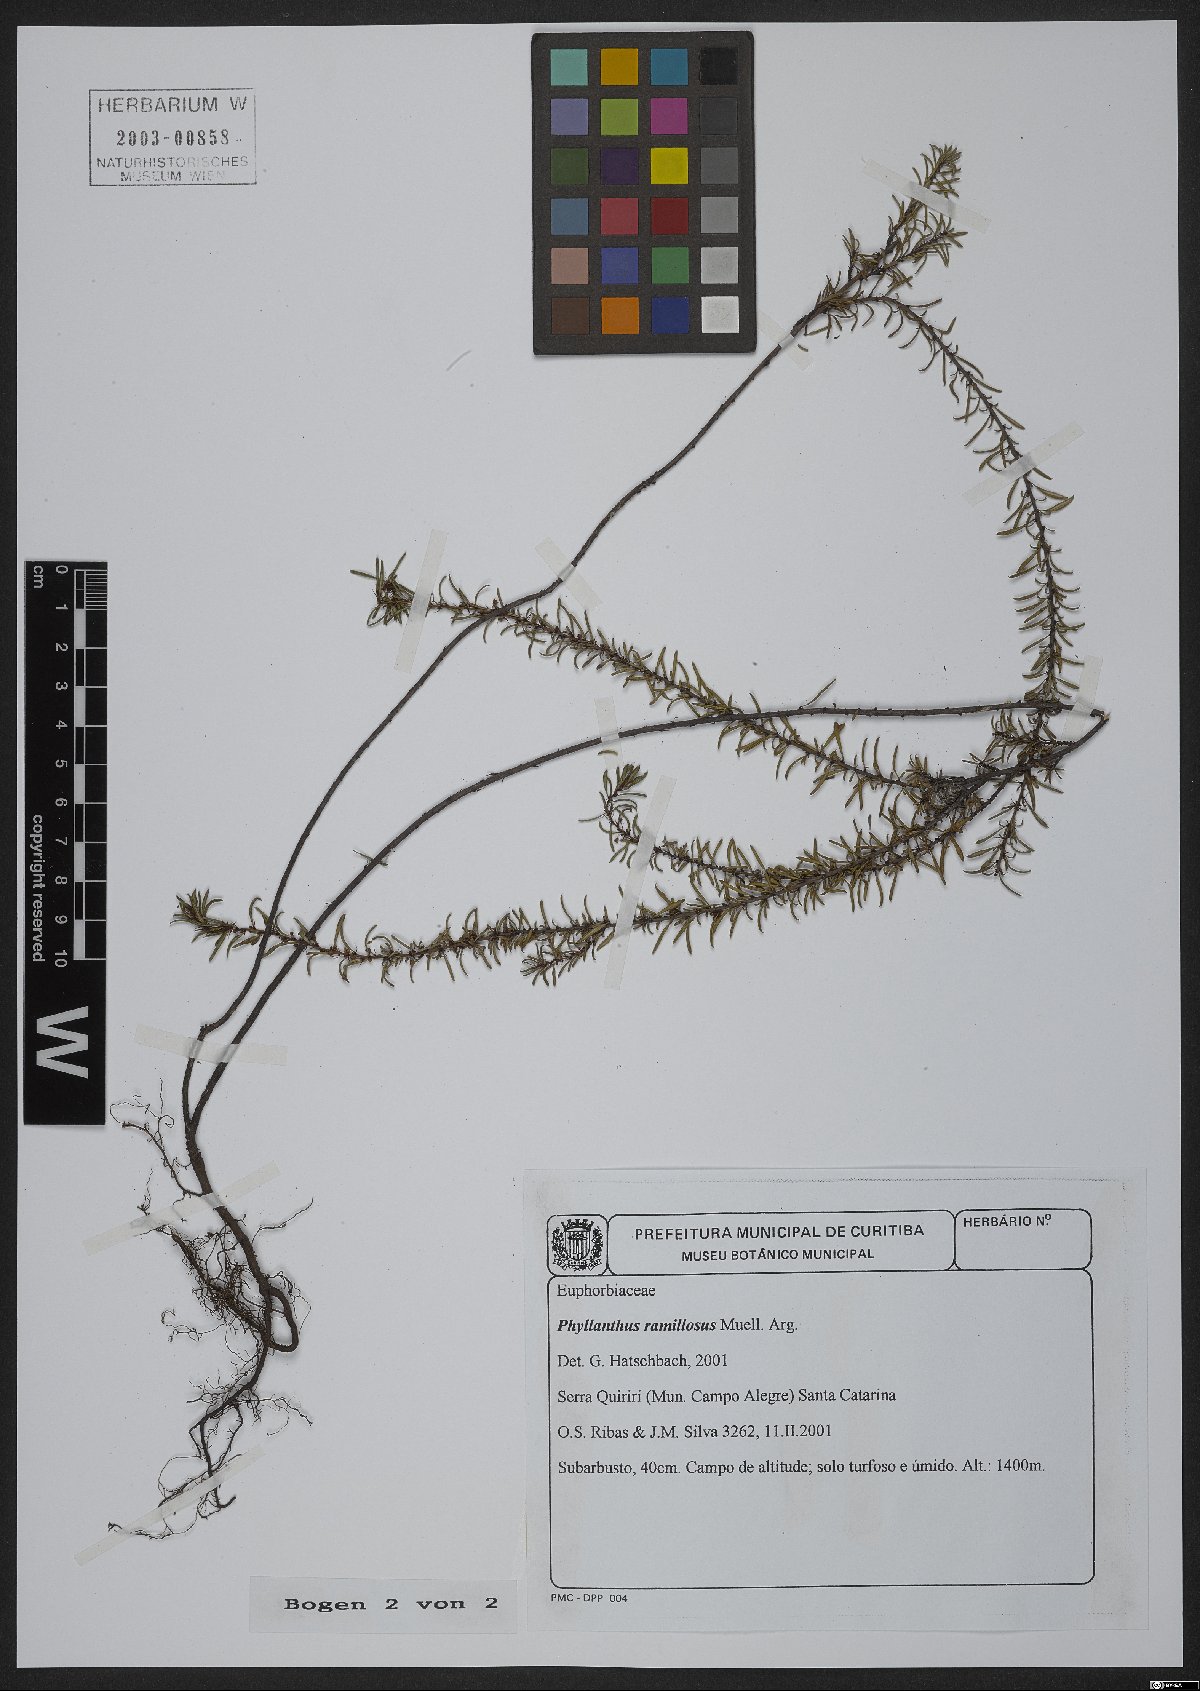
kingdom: Plantae
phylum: Tracheophyta
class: Magnoliopsida
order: Malpighiales
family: Phyllanthaceae
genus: Phyllanthus
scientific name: Phyllanthus ramillosus
